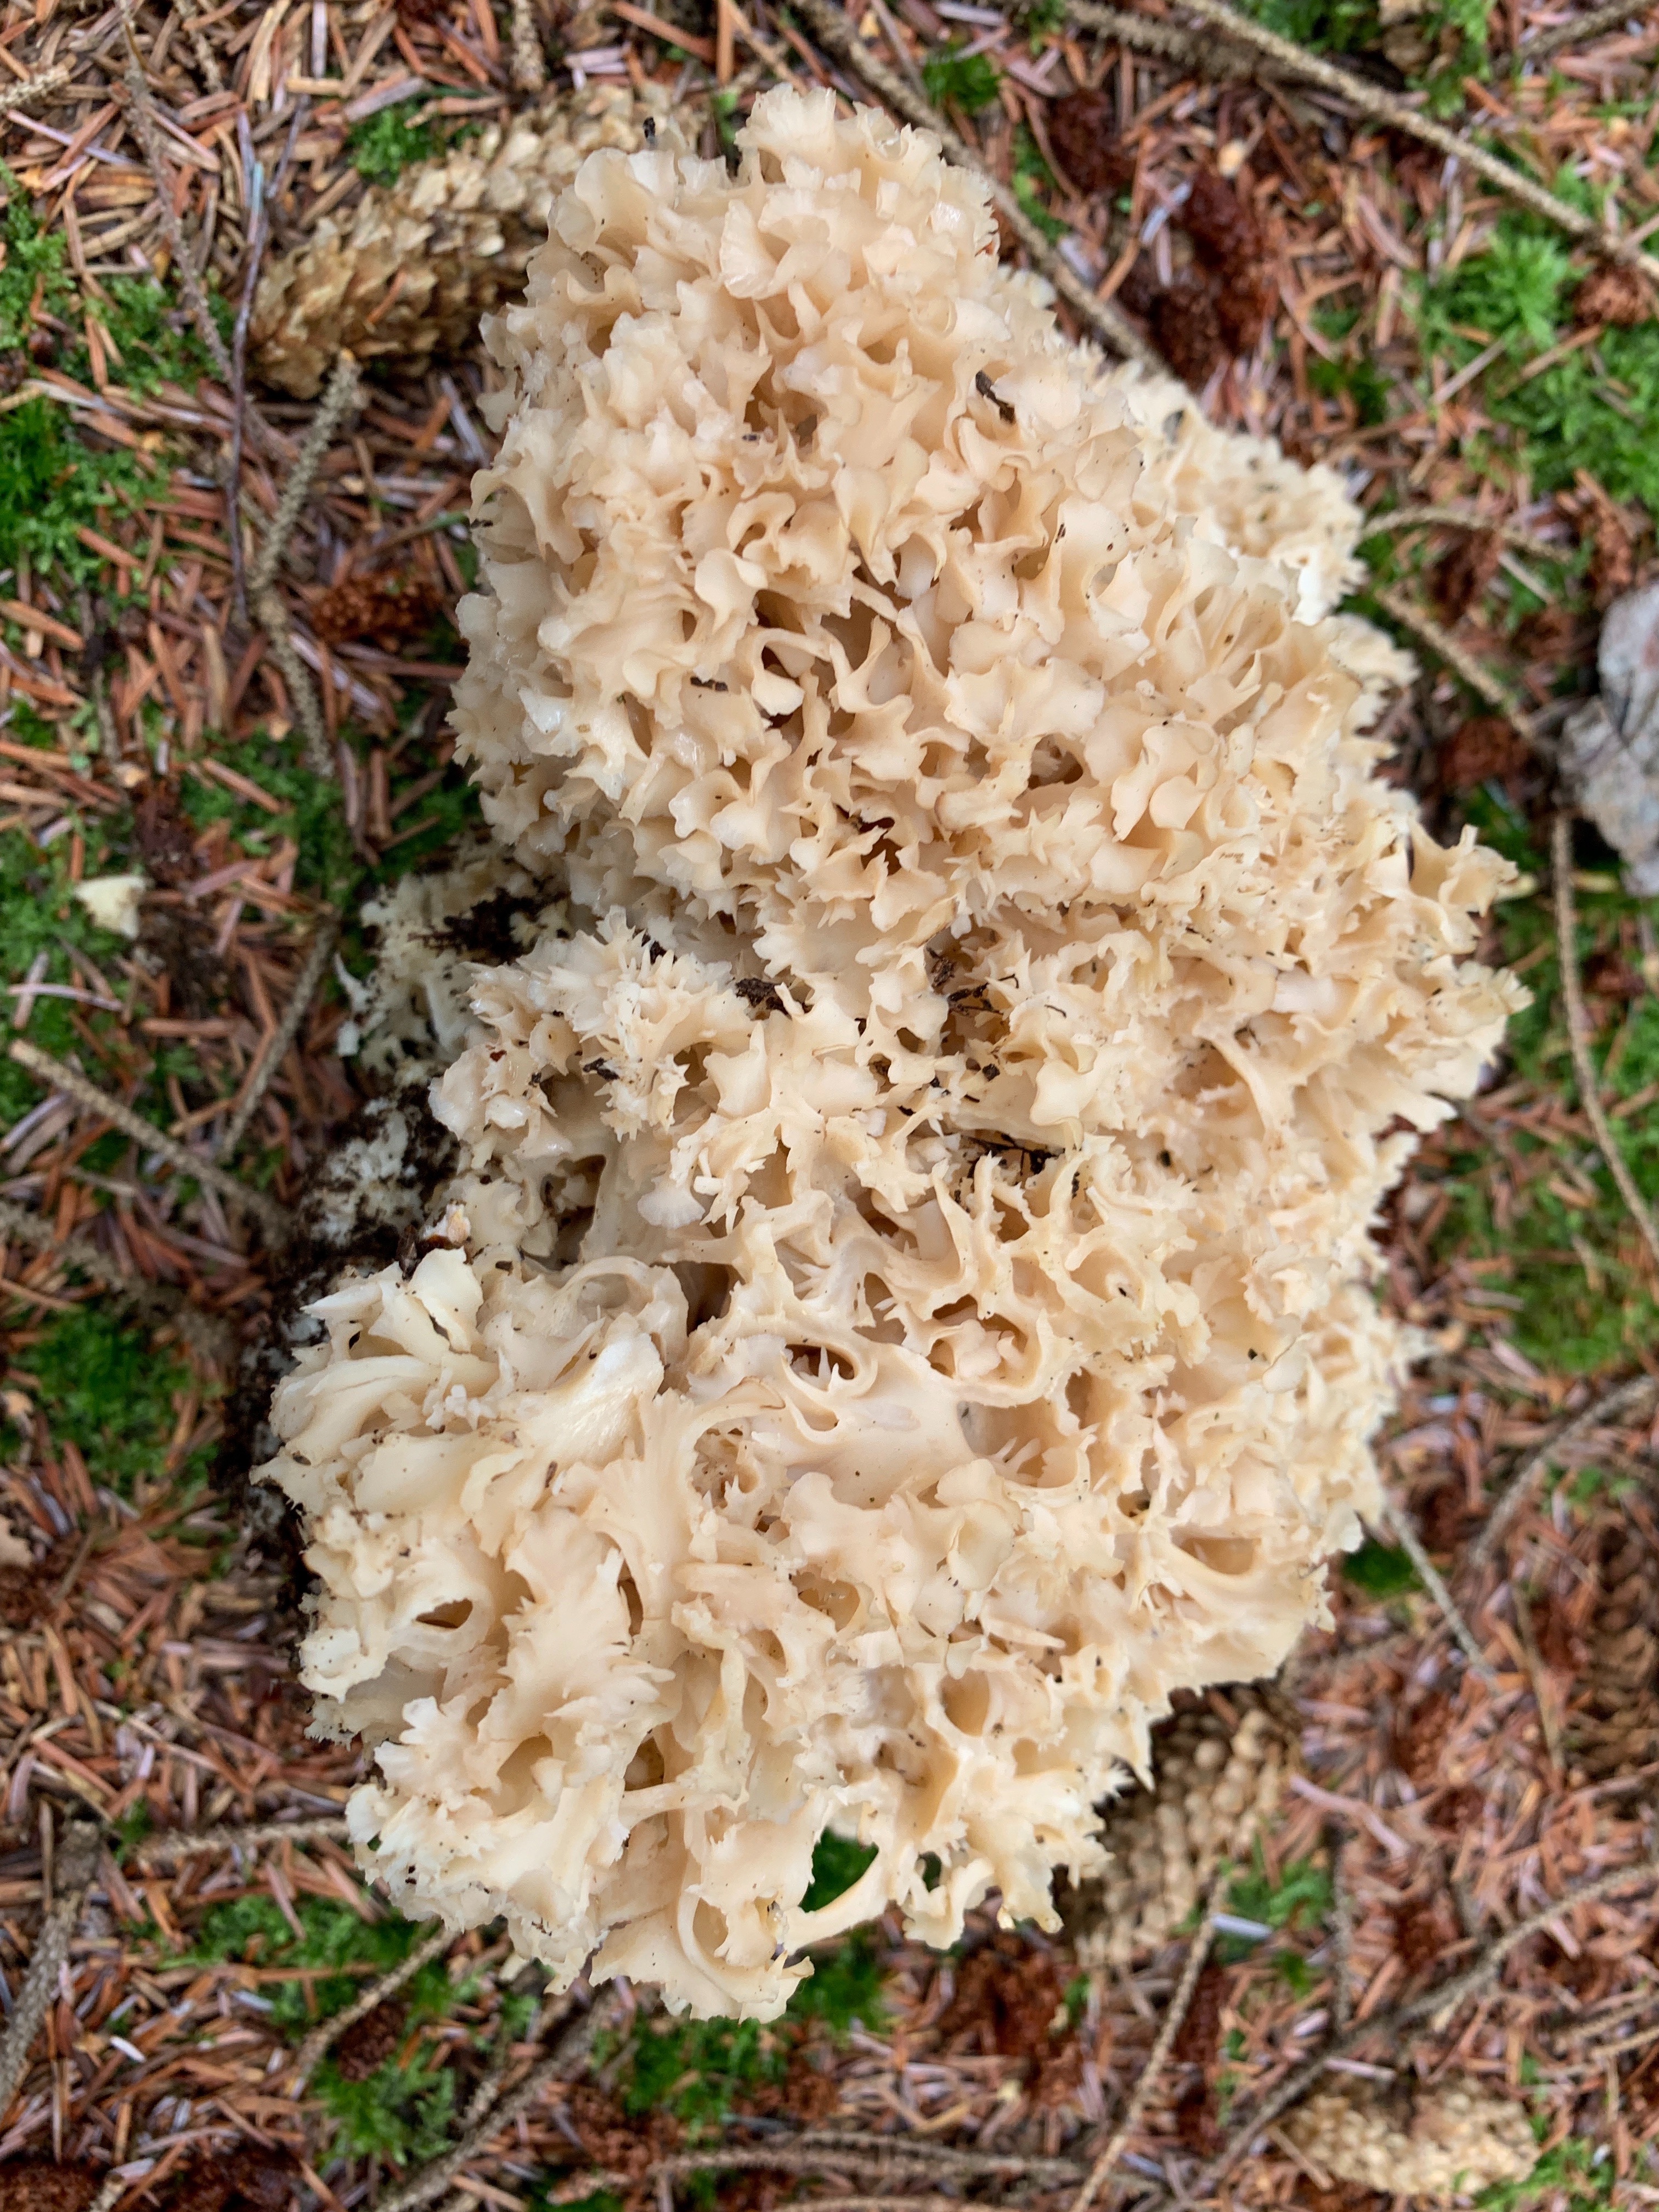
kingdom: Fungi
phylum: Basidiomycota
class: Agaricomycetes
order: Polyporales
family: Sparassidaceae
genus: Sparassis
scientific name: Sparassis crispa
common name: kruset blomkålssvamp
